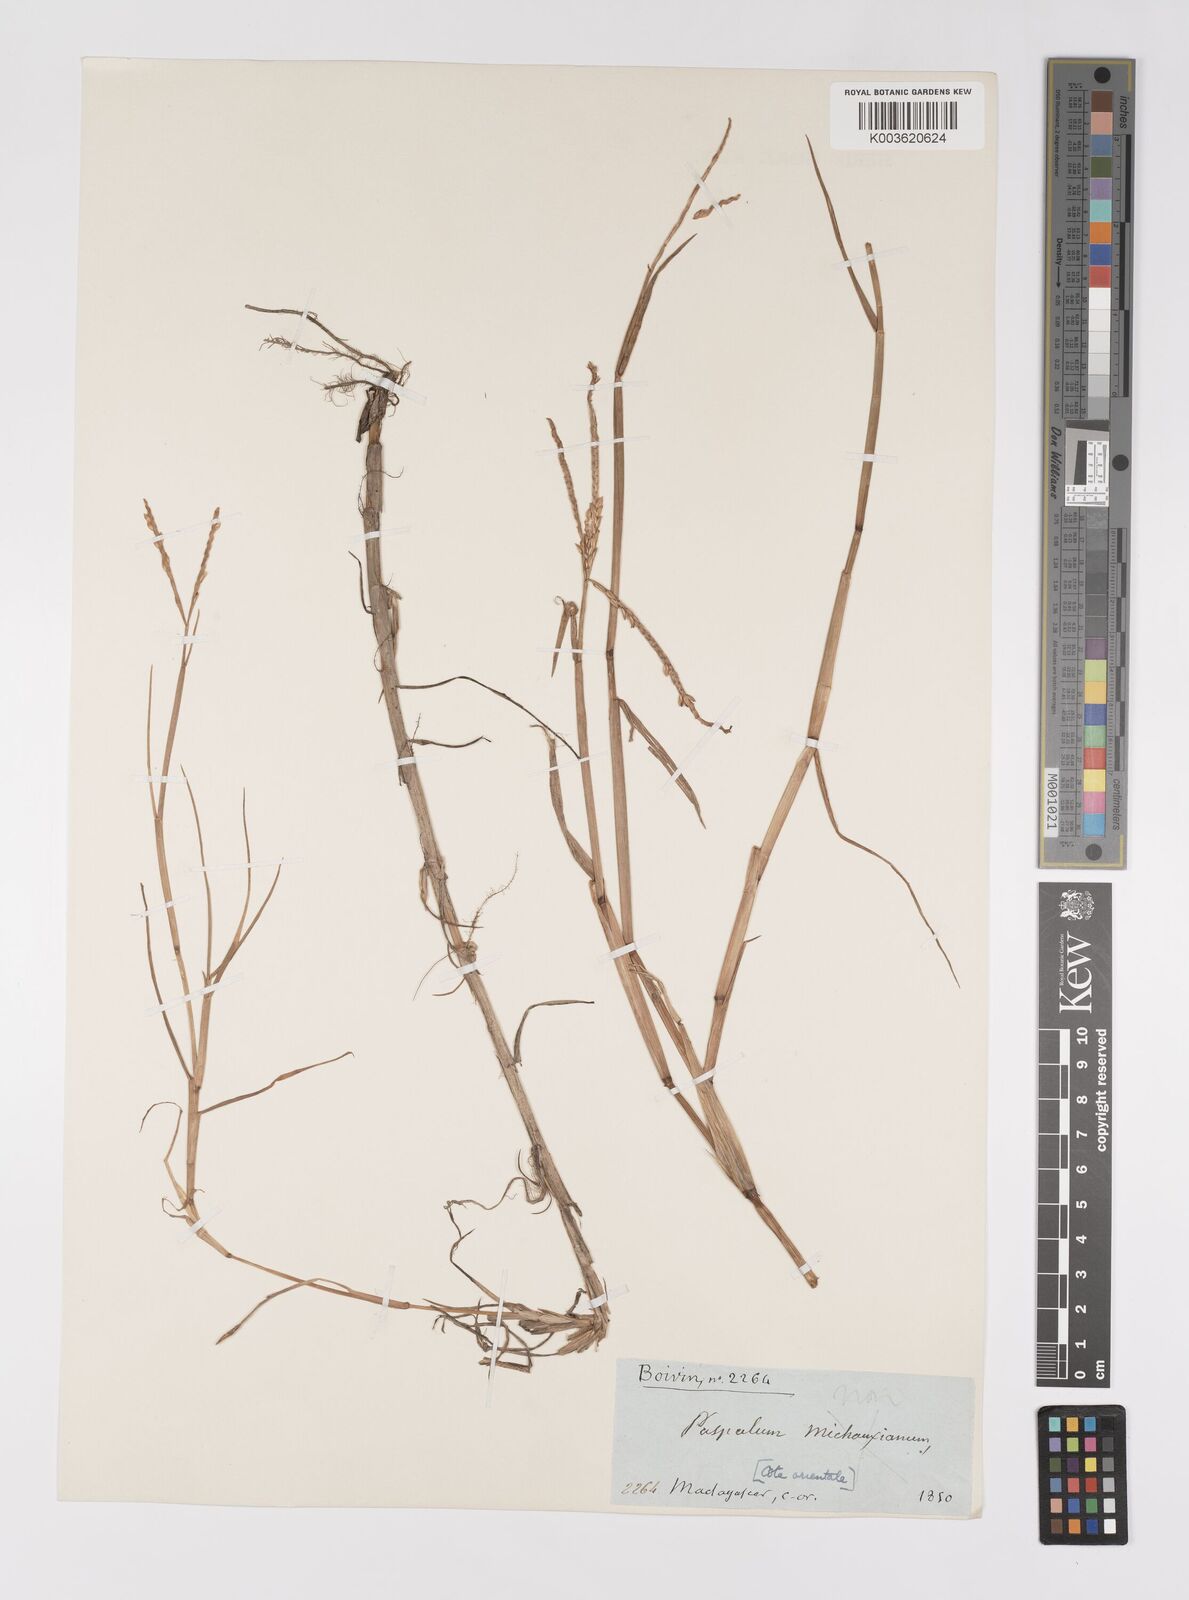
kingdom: Plantae
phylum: Tracheophyta
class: Liliopsida
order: Poales
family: Poaceae
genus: Paspalum
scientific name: Paspalum vaginatum
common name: Seashore paspalum
